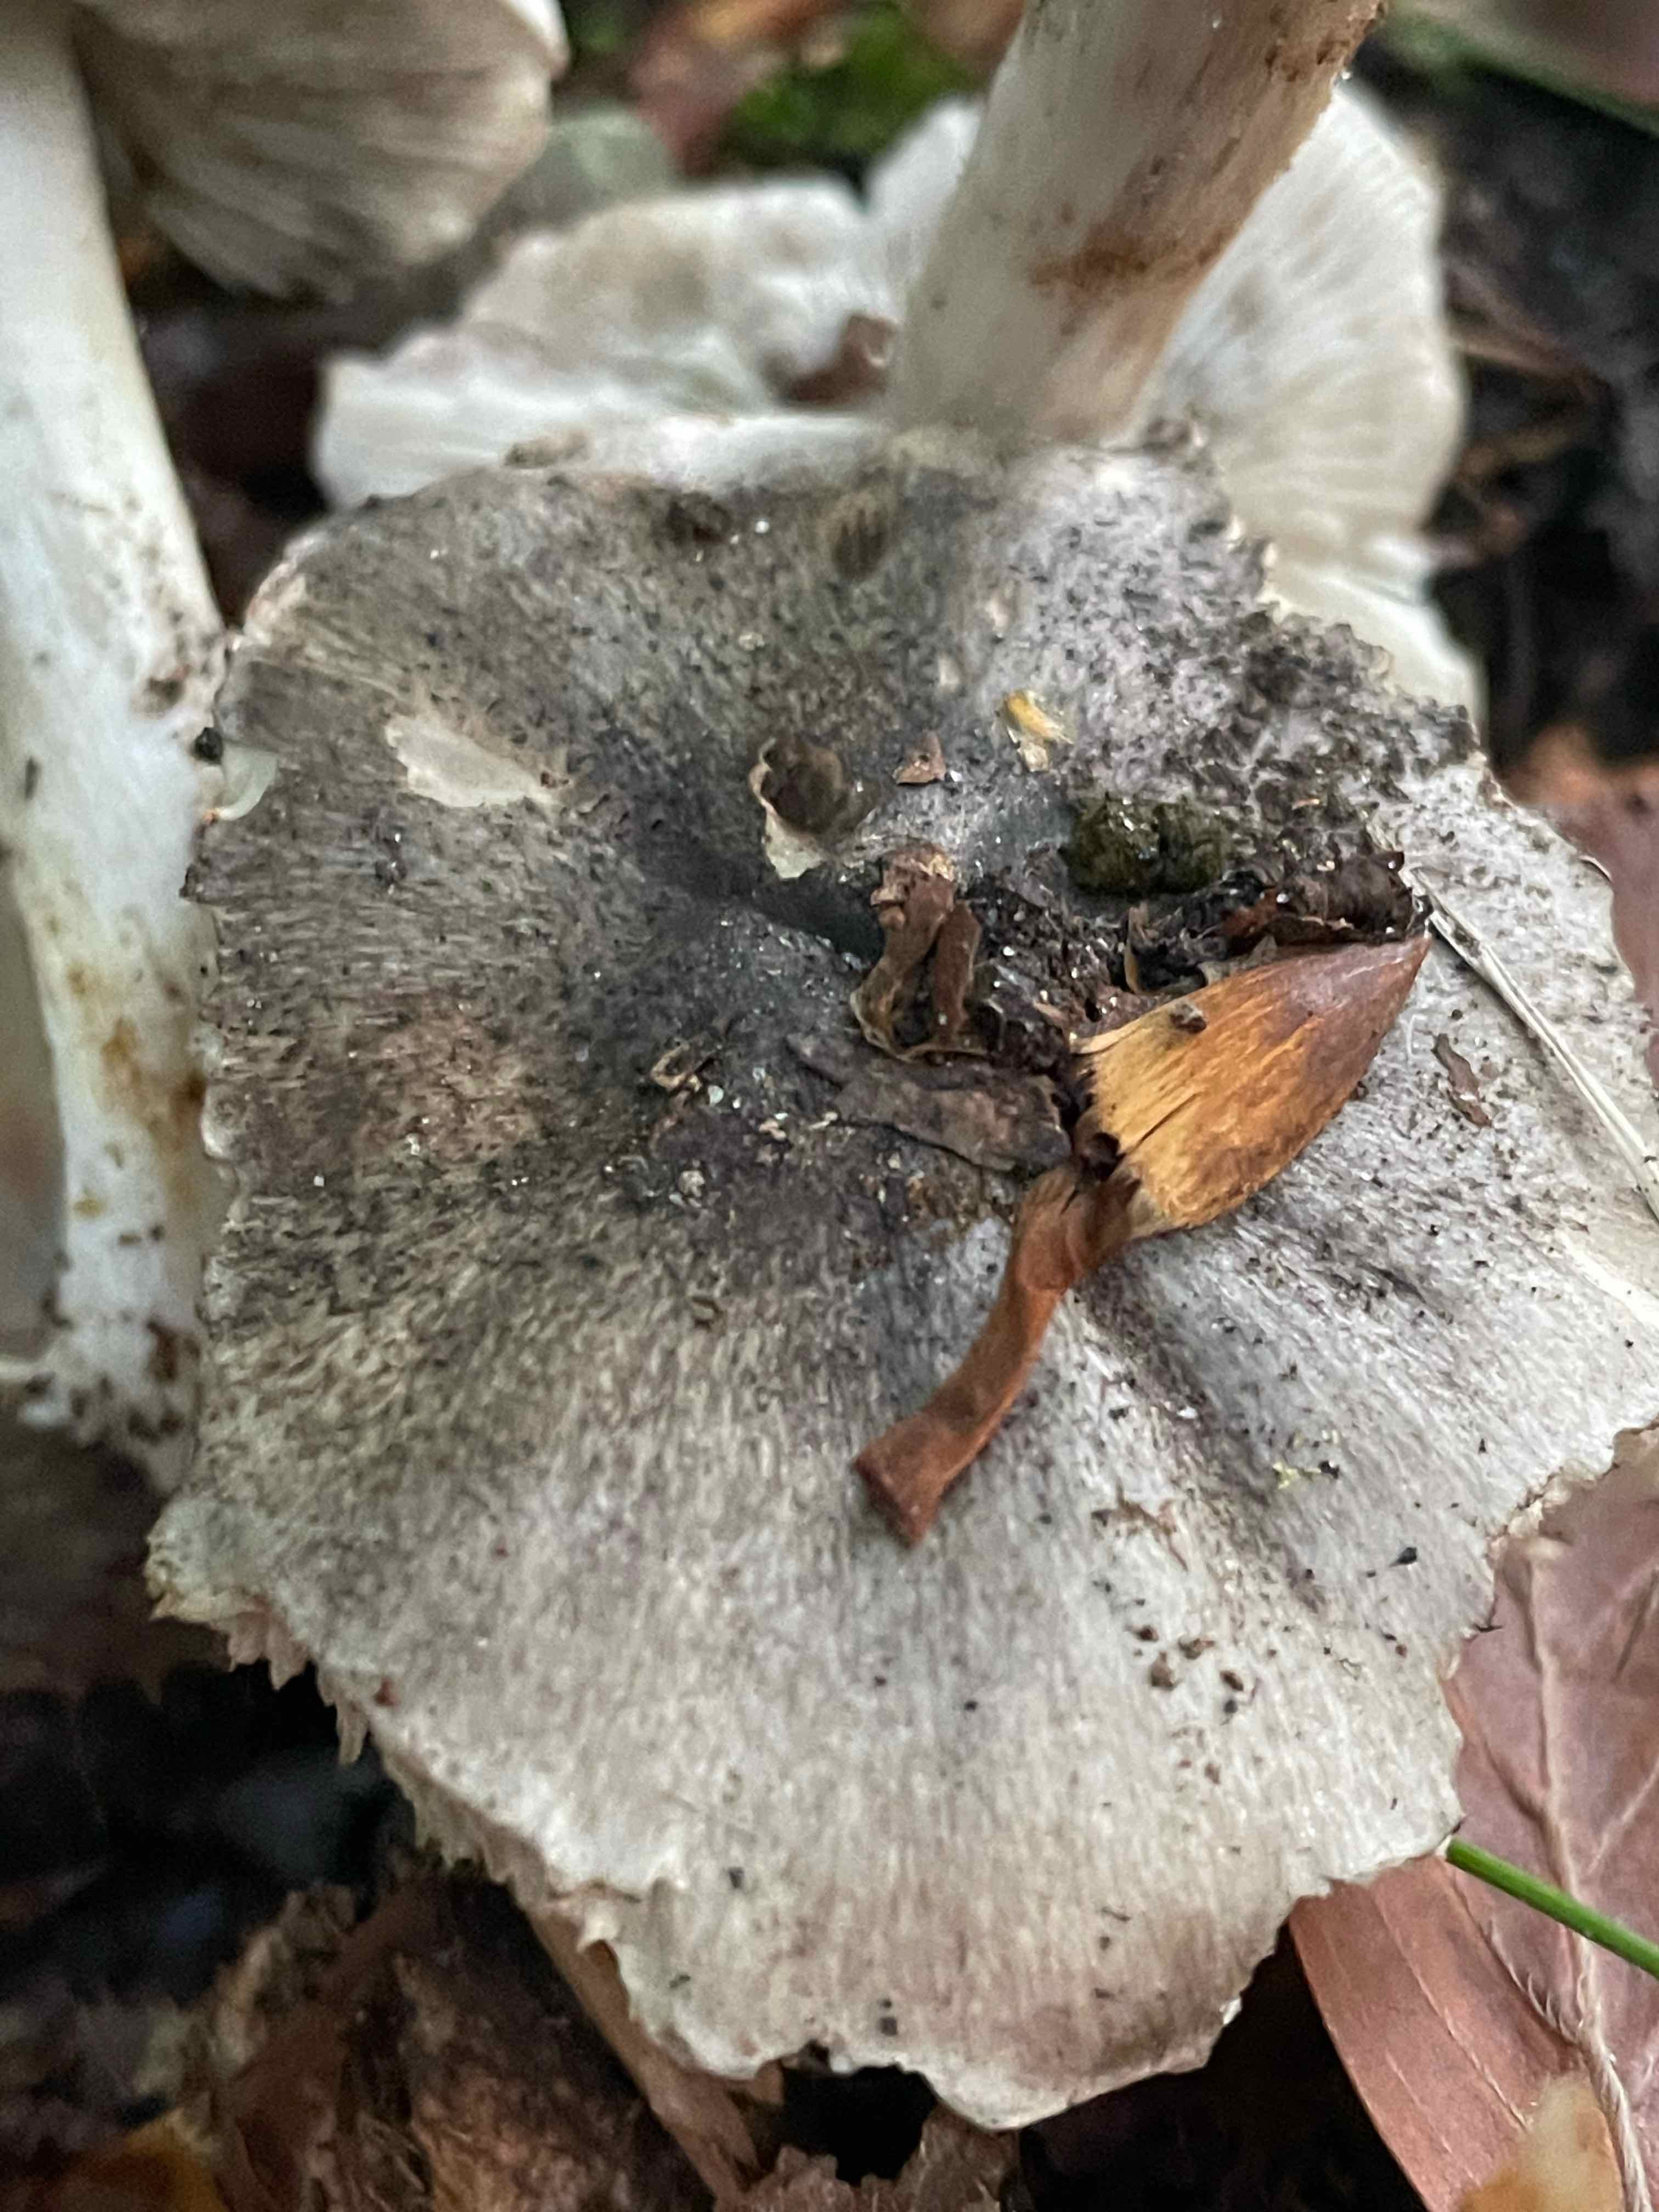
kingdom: Fungi
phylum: Basidiomycota
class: Agaricomycetes
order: Agaricales
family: Tricholomataceae
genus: Tricholoma
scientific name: Tricholoma sciodes
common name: stribet ridderhat
